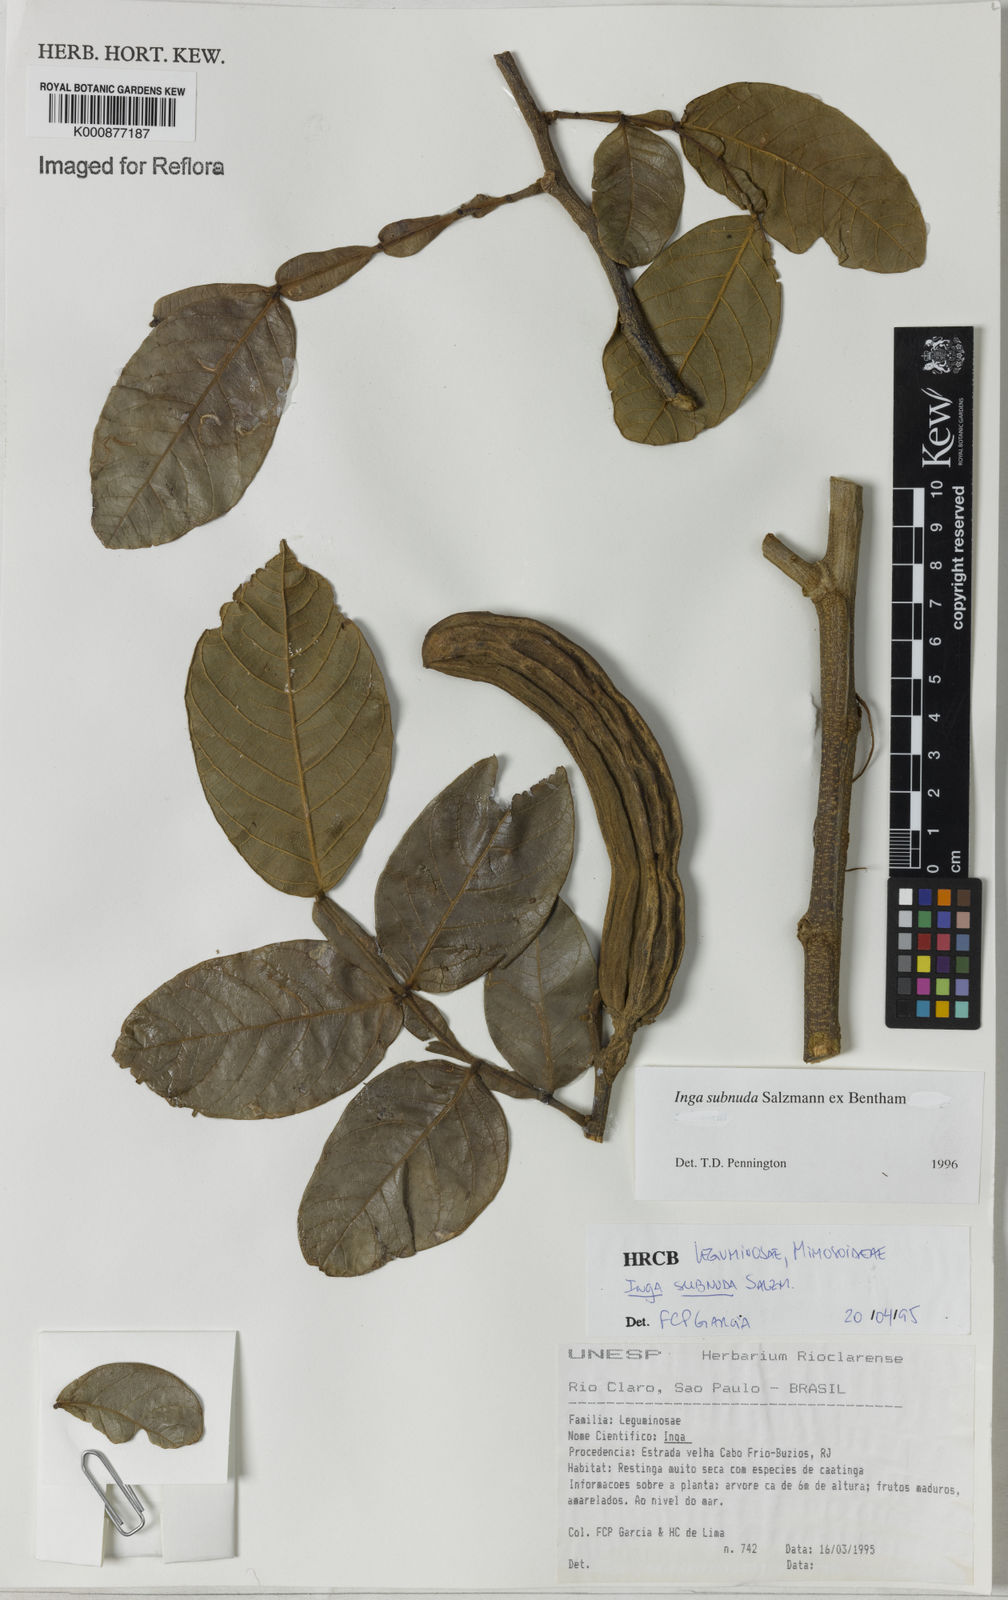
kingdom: Plantae
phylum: Tracheophyta
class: Magnoliopsida
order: Fabales
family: Fabaceae
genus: Inga
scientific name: Inga subnuda
